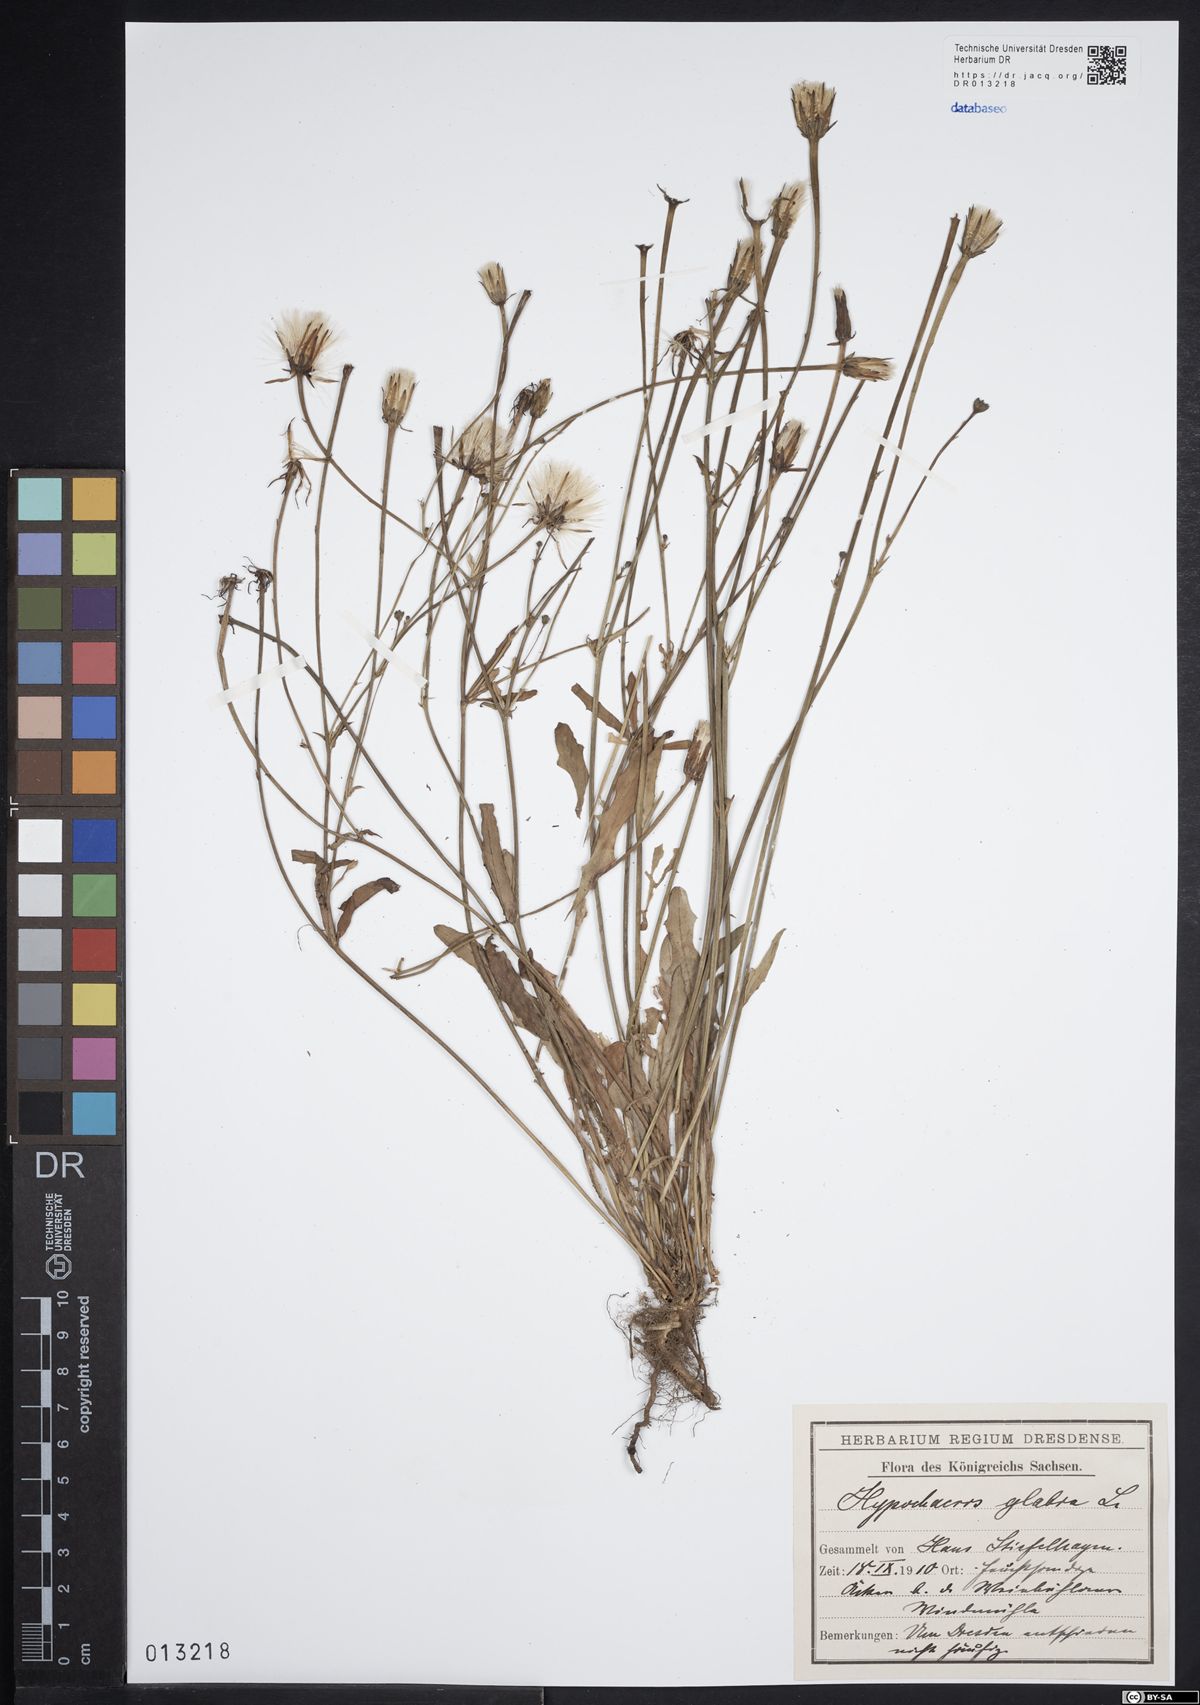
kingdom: Plantae
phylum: Tracheophyta
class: Magnoliopsida
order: Asterales
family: Asteraceae
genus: Hypochaeris
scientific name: Hypochaeris glabra
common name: Smooth catsear
